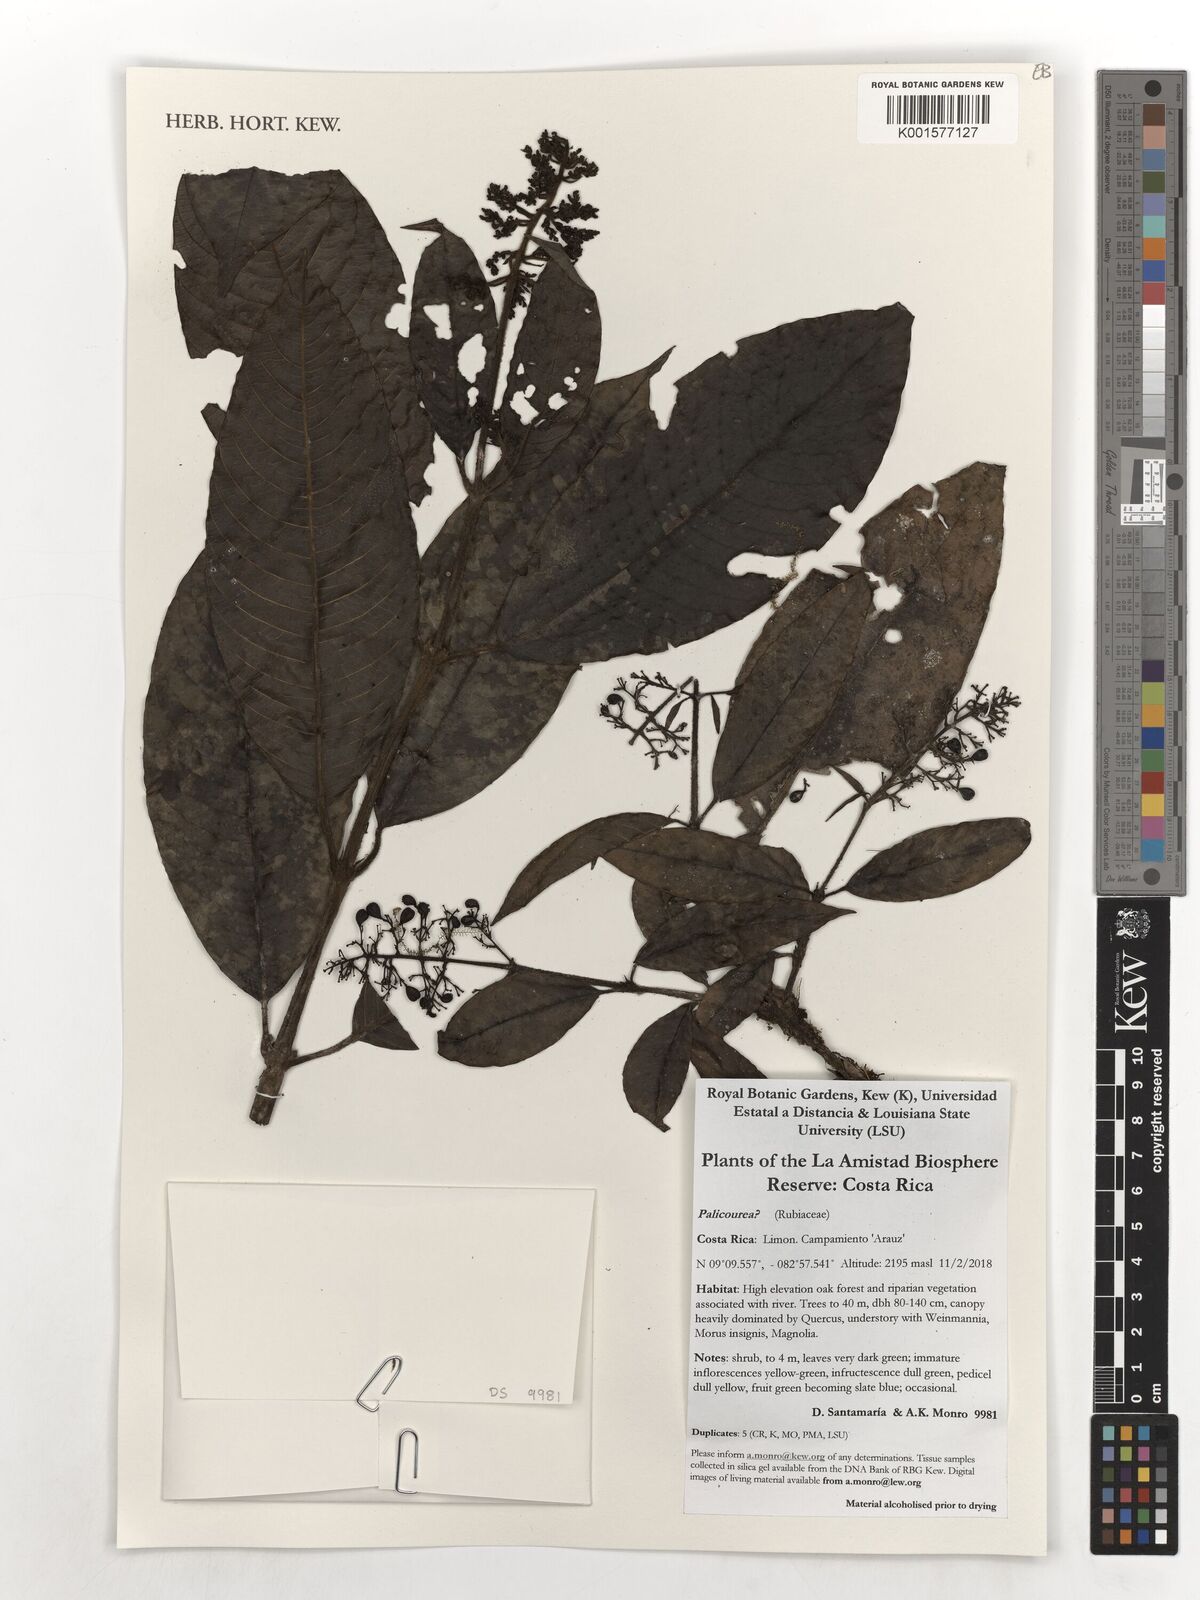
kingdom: Plantae
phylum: Tracheophyta
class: Magnoliopsida
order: Gentianales
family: Rubiaceae
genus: Palicourea
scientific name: Palicourea
